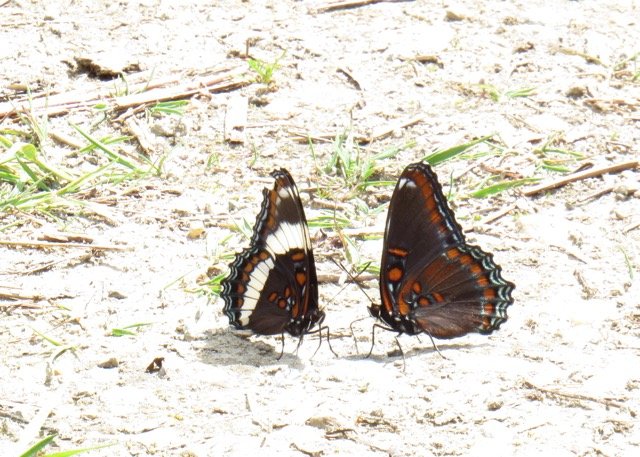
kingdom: Animalia
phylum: Arthropoda
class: Insecta
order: Lepidoptera
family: Nymphalidae
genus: Limenitis
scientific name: Limenitis
